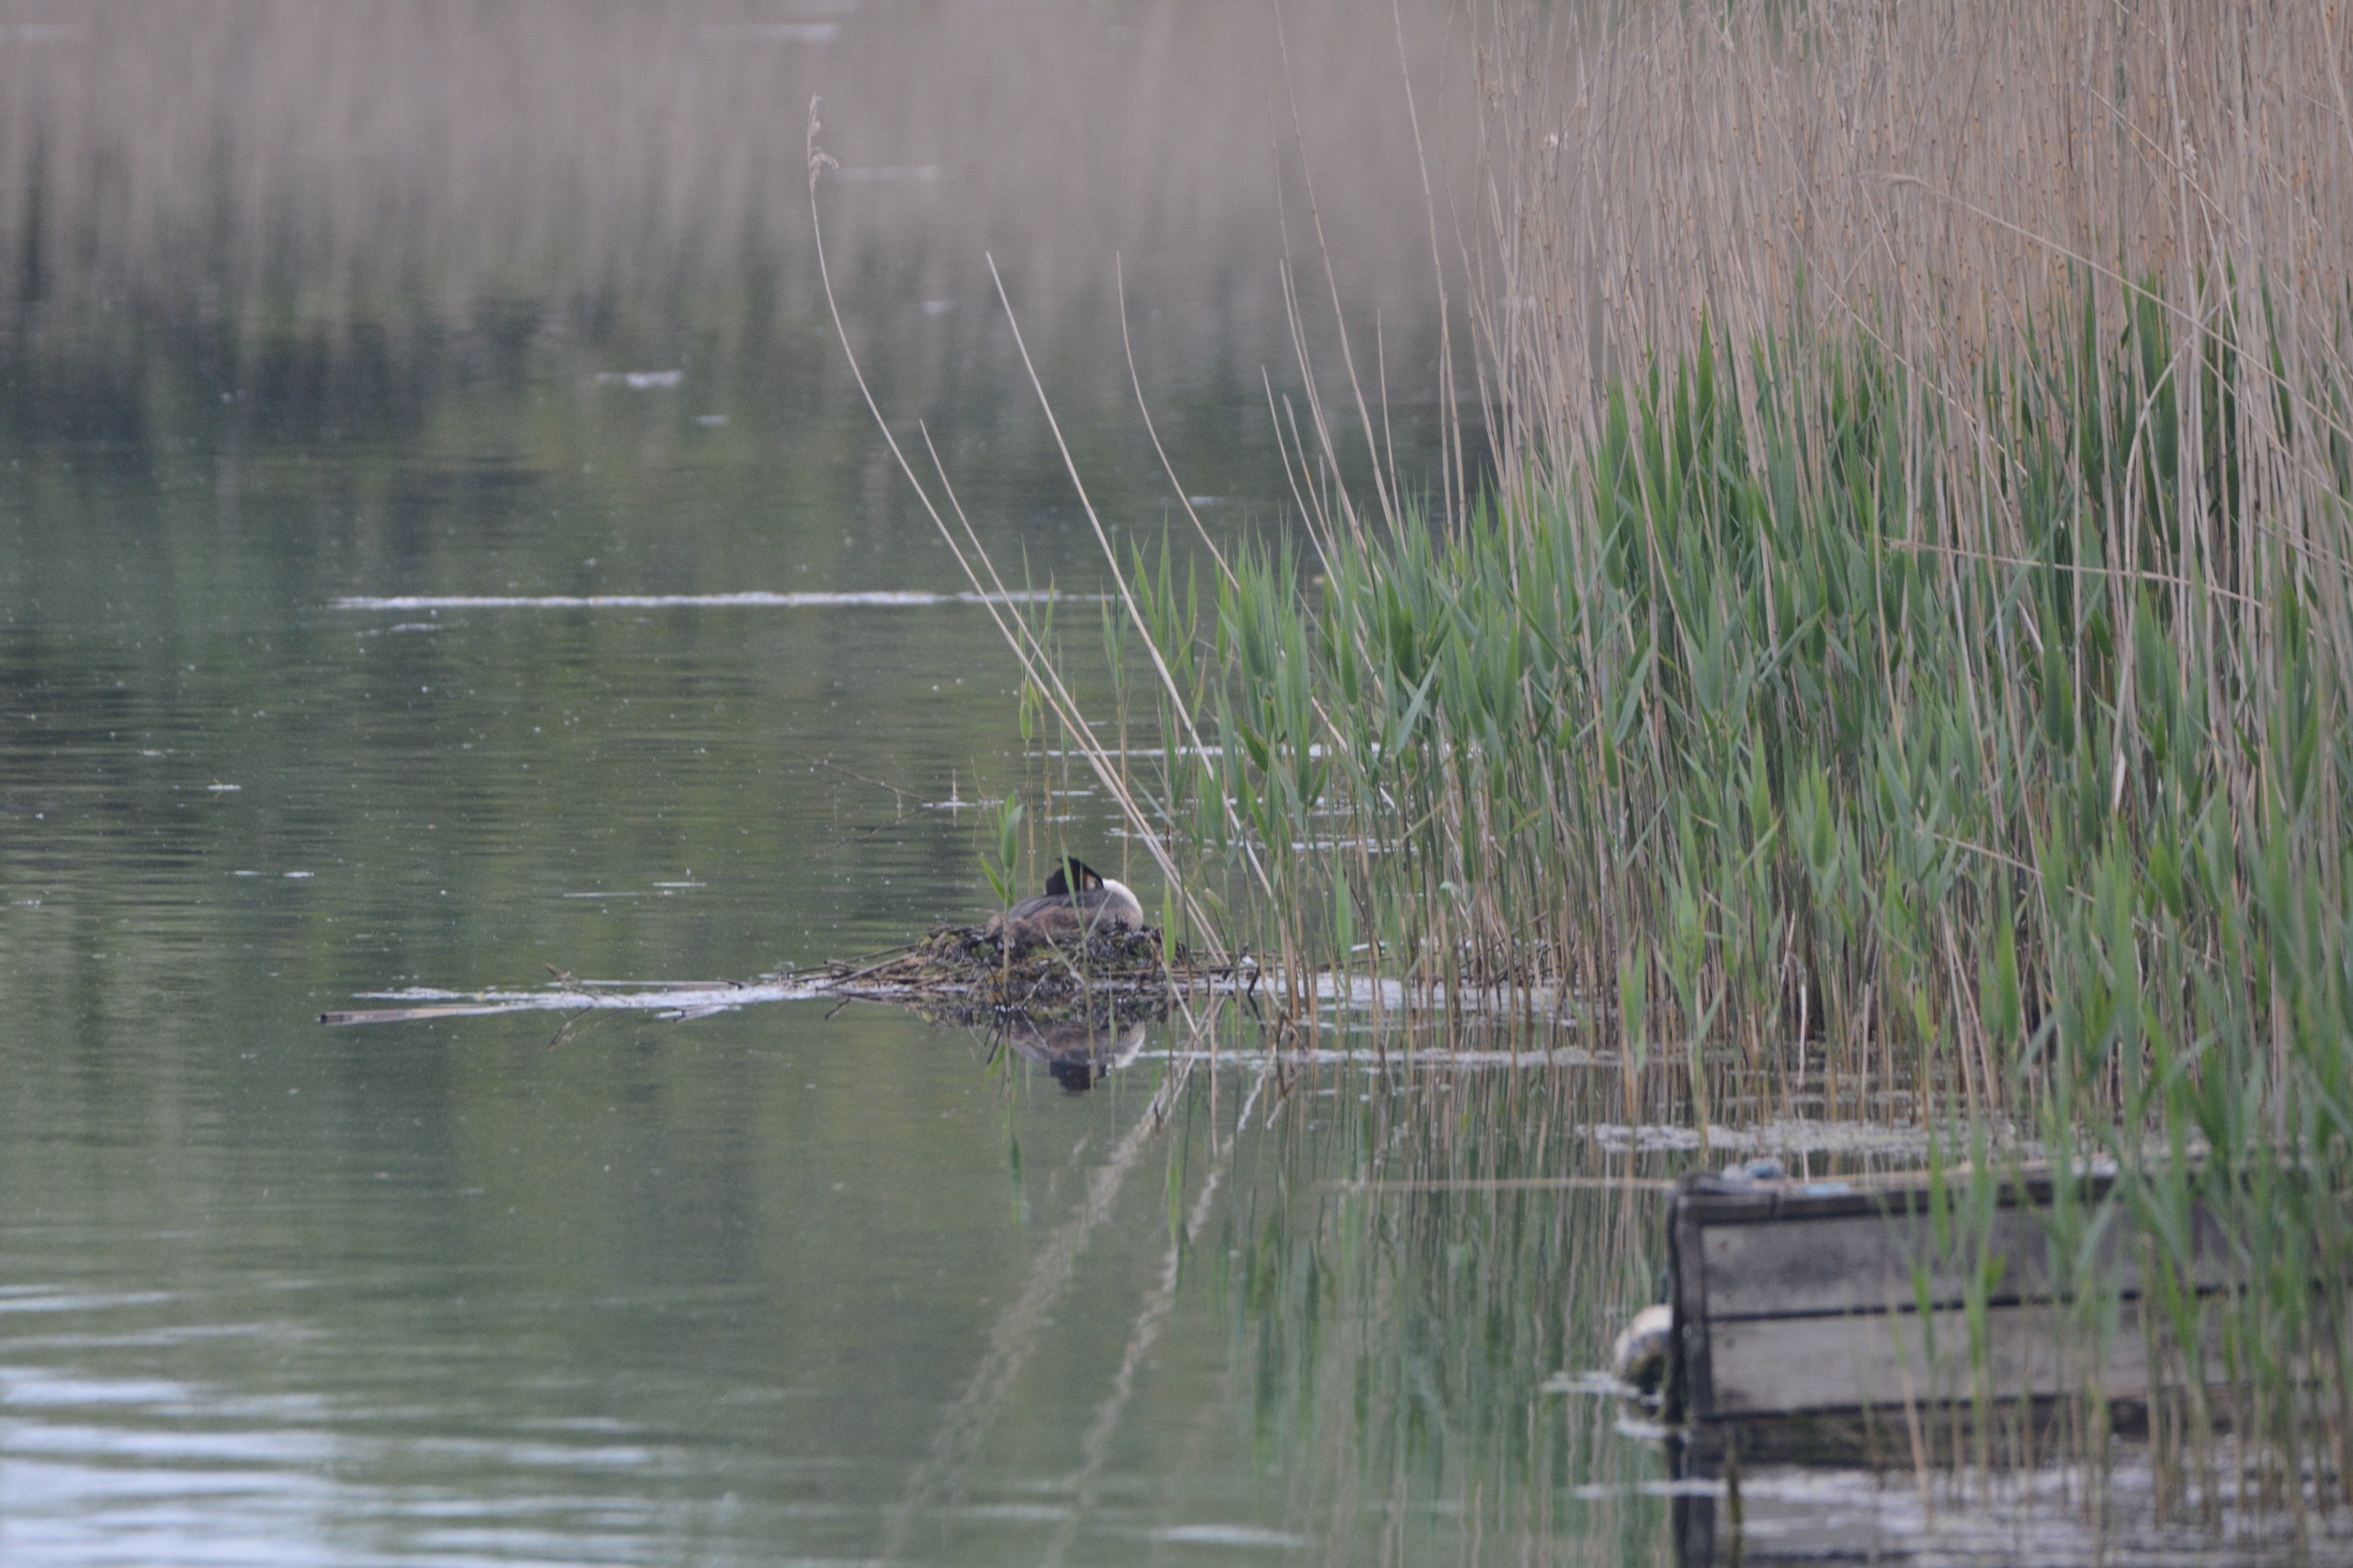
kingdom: Animalia
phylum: Chordata
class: Aves
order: Podicipediformes
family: Podicipedidae
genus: Podiceps
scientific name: Podiceps cristatus
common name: Toppet lappedykker
